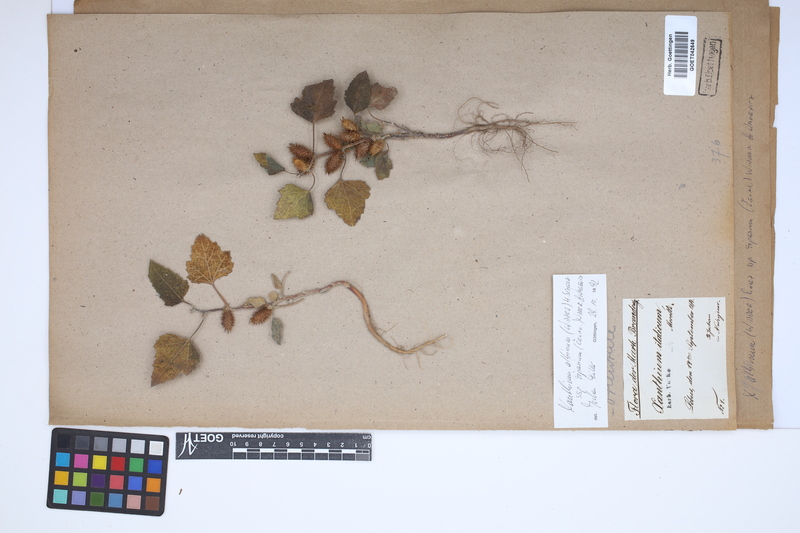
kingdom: Plantae
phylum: Tracheophyta
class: Magnoliopsida
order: Asterales
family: Asteraceae
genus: Xanthium
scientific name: Xanthium orientale
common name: Californian burr
